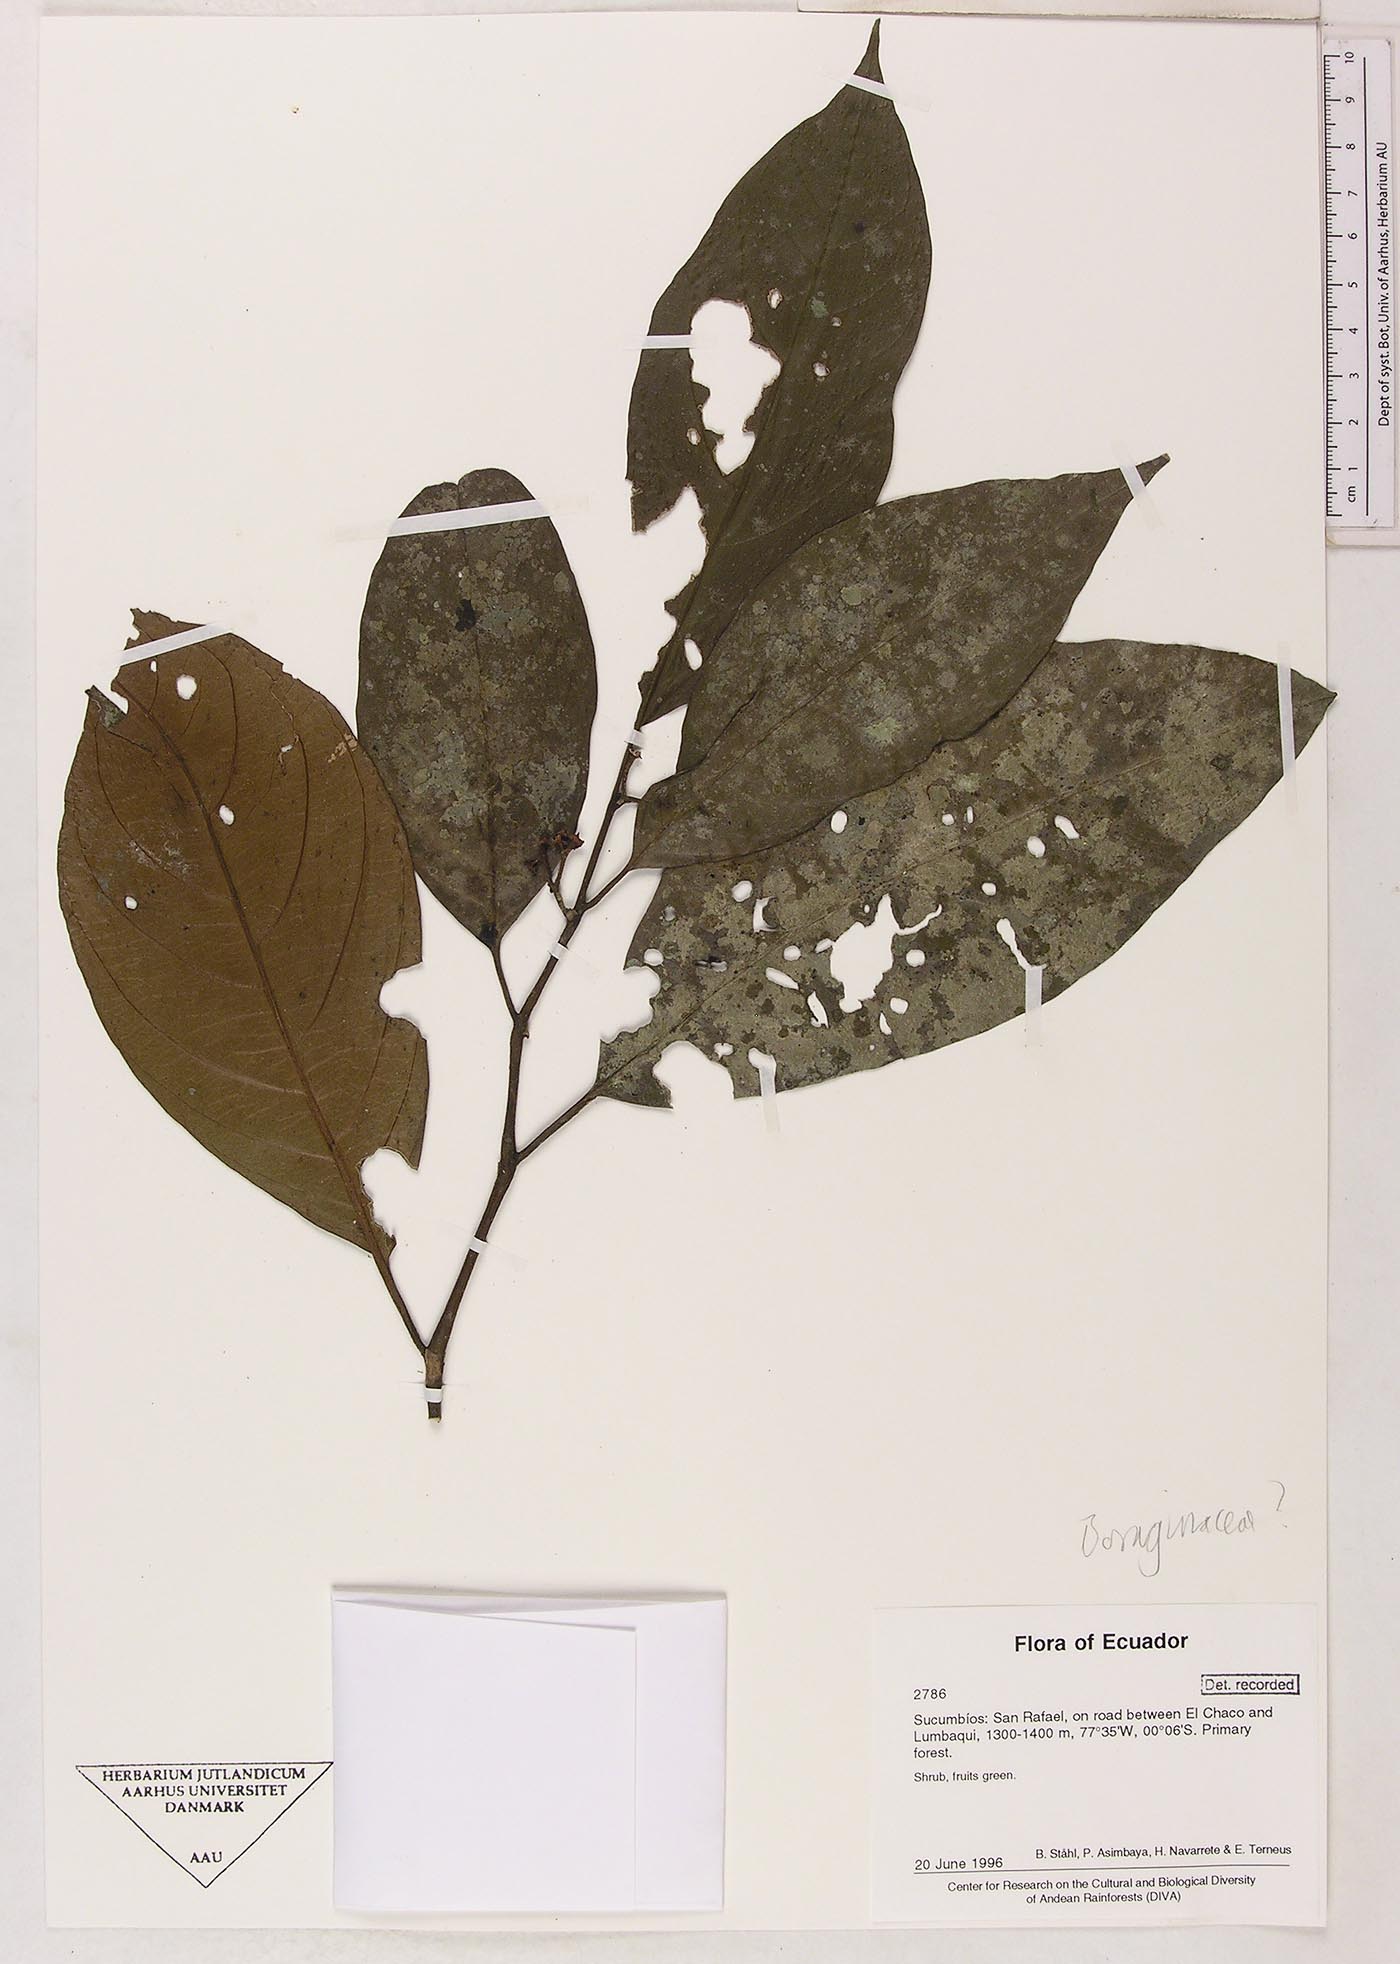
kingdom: Plantae
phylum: Tracheophyta
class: Magnoliopsida
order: Boraginales
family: Boraginaceae
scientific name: Boraginaceae
